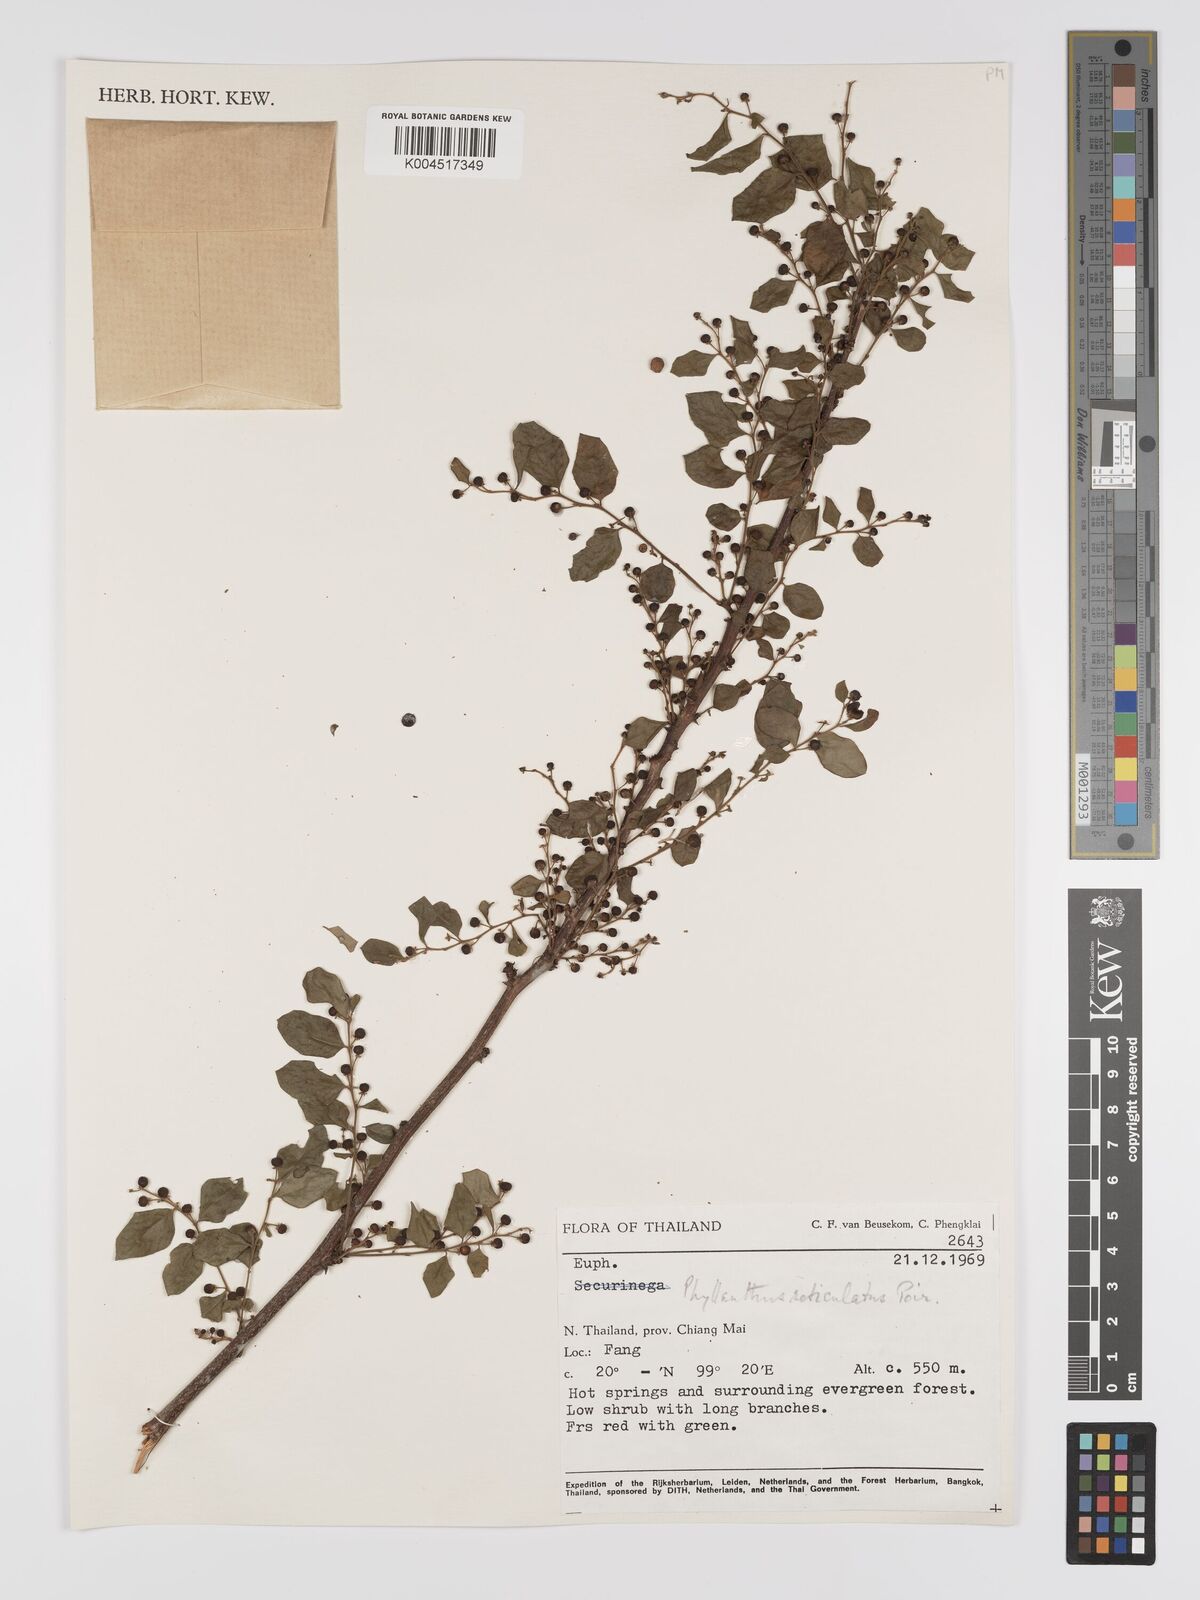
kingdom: Plantae
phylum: Tracheophyta
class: Magnoliopsida
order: Malpighiales
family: Phyllanthaceae
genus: Phyllanthus
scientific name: Phyllanthus reticulatus
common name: Potato bush
